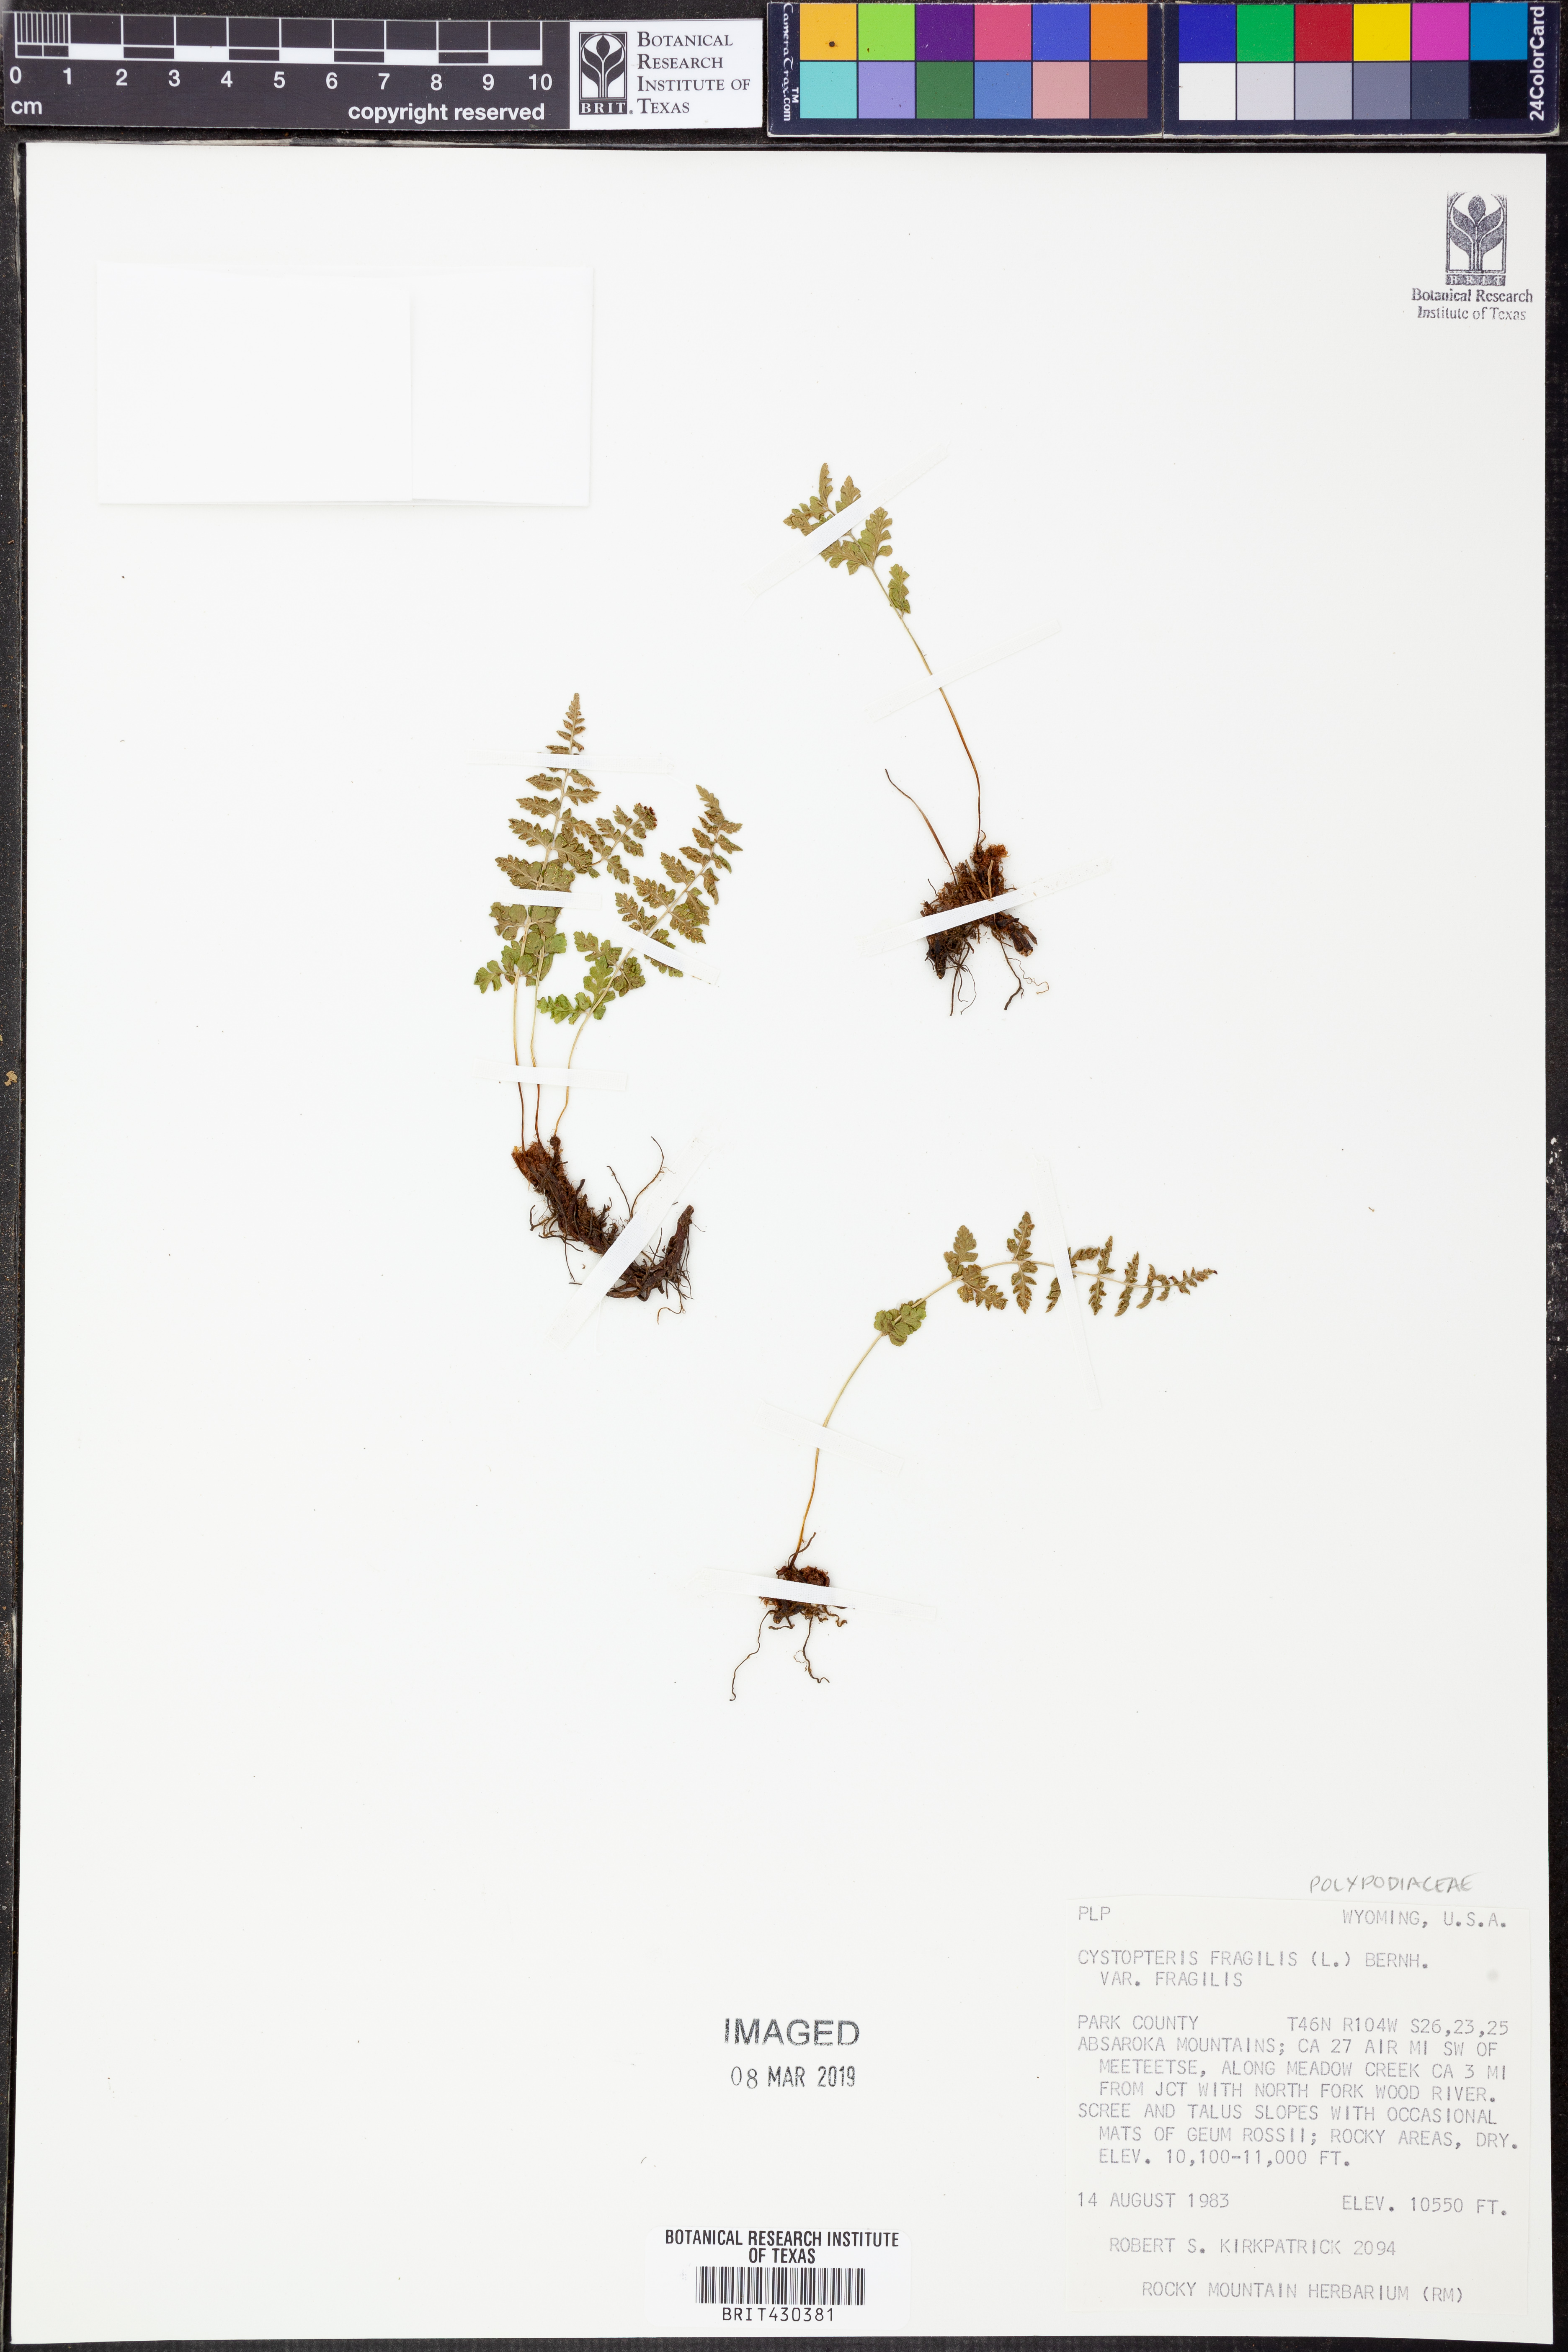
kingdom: Plantae
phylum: Tracheophyta
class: Polypodiopsida
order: Polypodiales
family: Cystopteridaceae
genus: Cystopteris
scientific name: Cystopteris fragilis
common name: Brittle bladder fern
